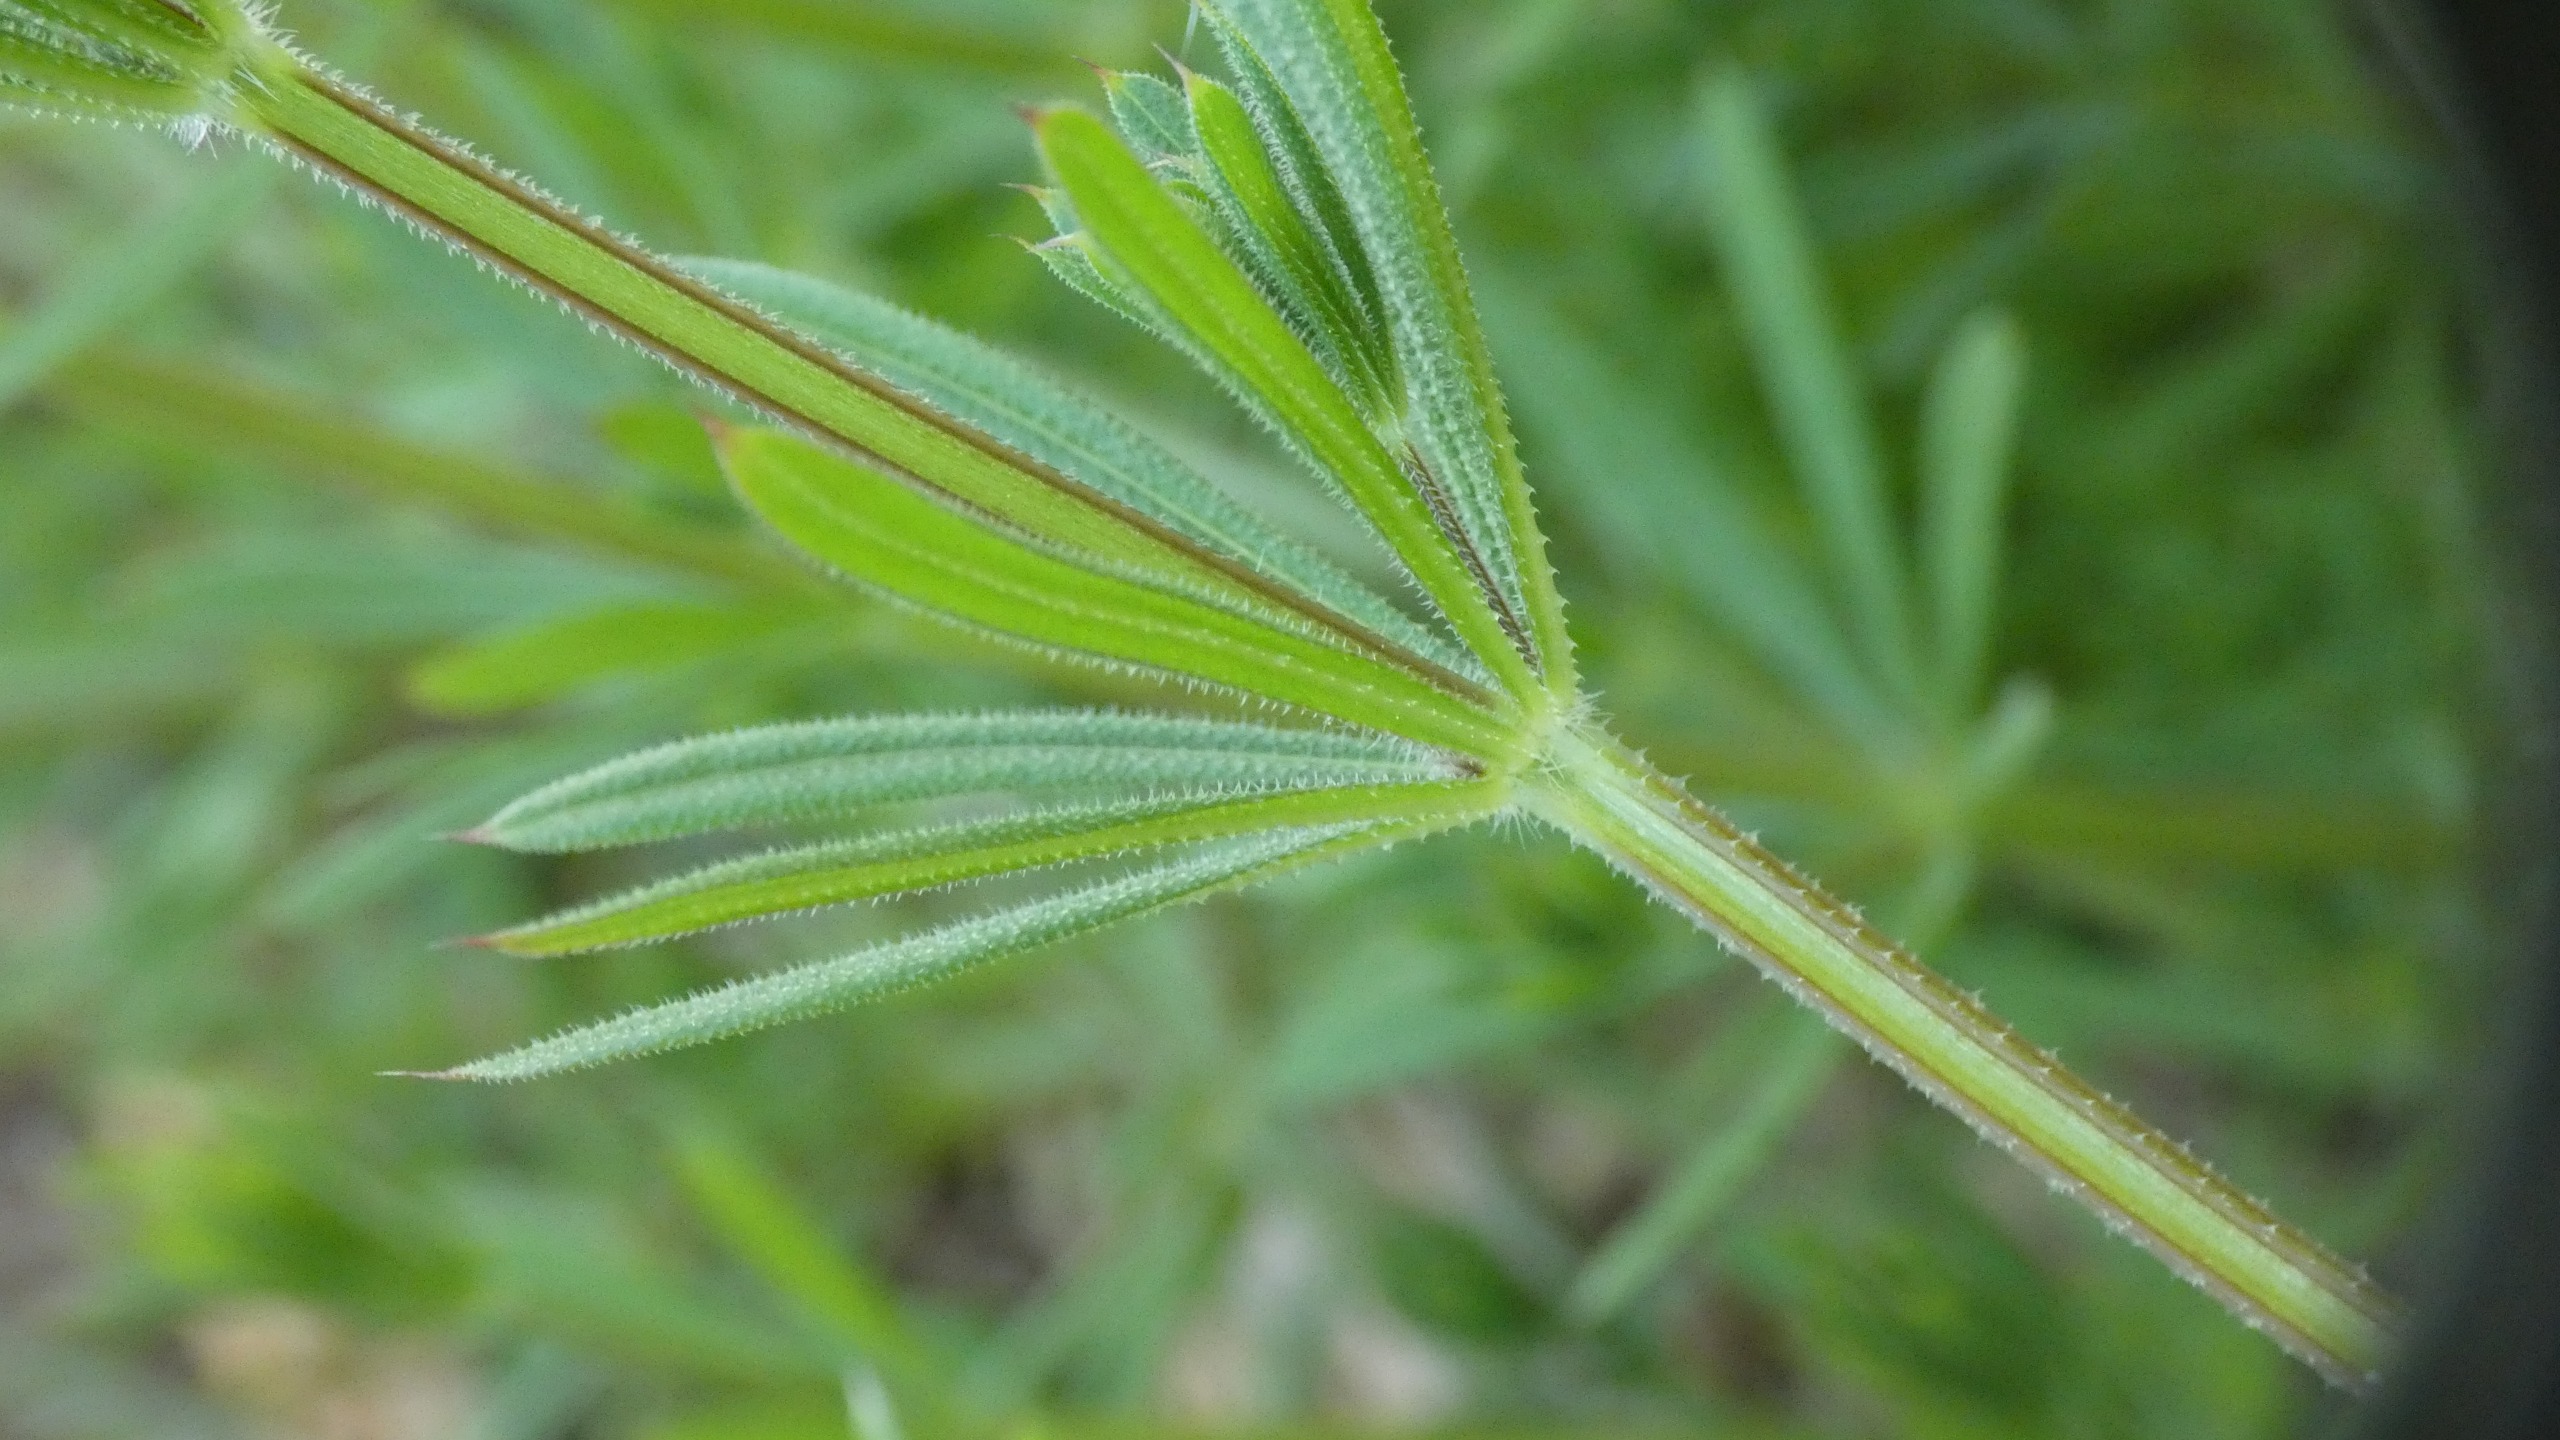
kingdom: Plantae
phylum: Tracheophyta
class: Magnoliopsida
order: Gentianales
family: Rubiaceae
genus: Galium
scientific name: Galium aparine
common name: Burre-snerre
